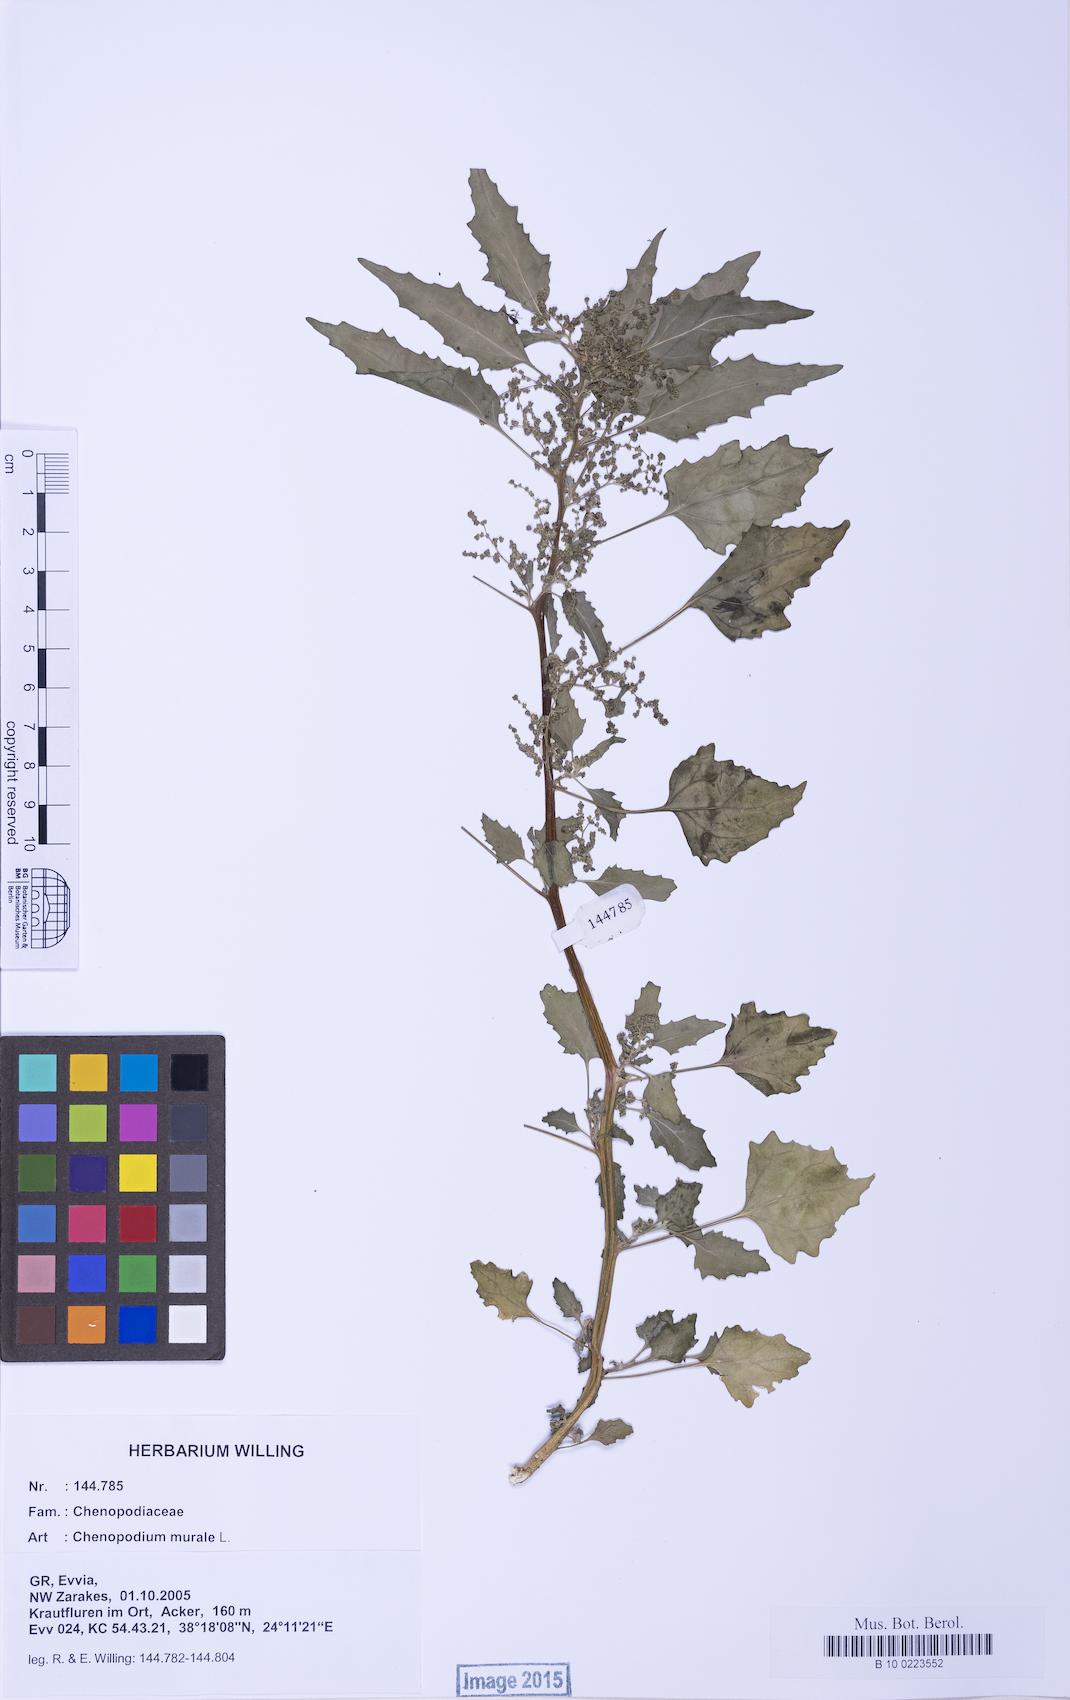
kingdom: Plantae
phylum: Tracheophyta
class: Magnoliopsida
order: Caryophyllales
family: Amaranthaceae
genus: Chenopodiastrum
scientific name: Chenopodiastrum murale
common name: Sowbane
